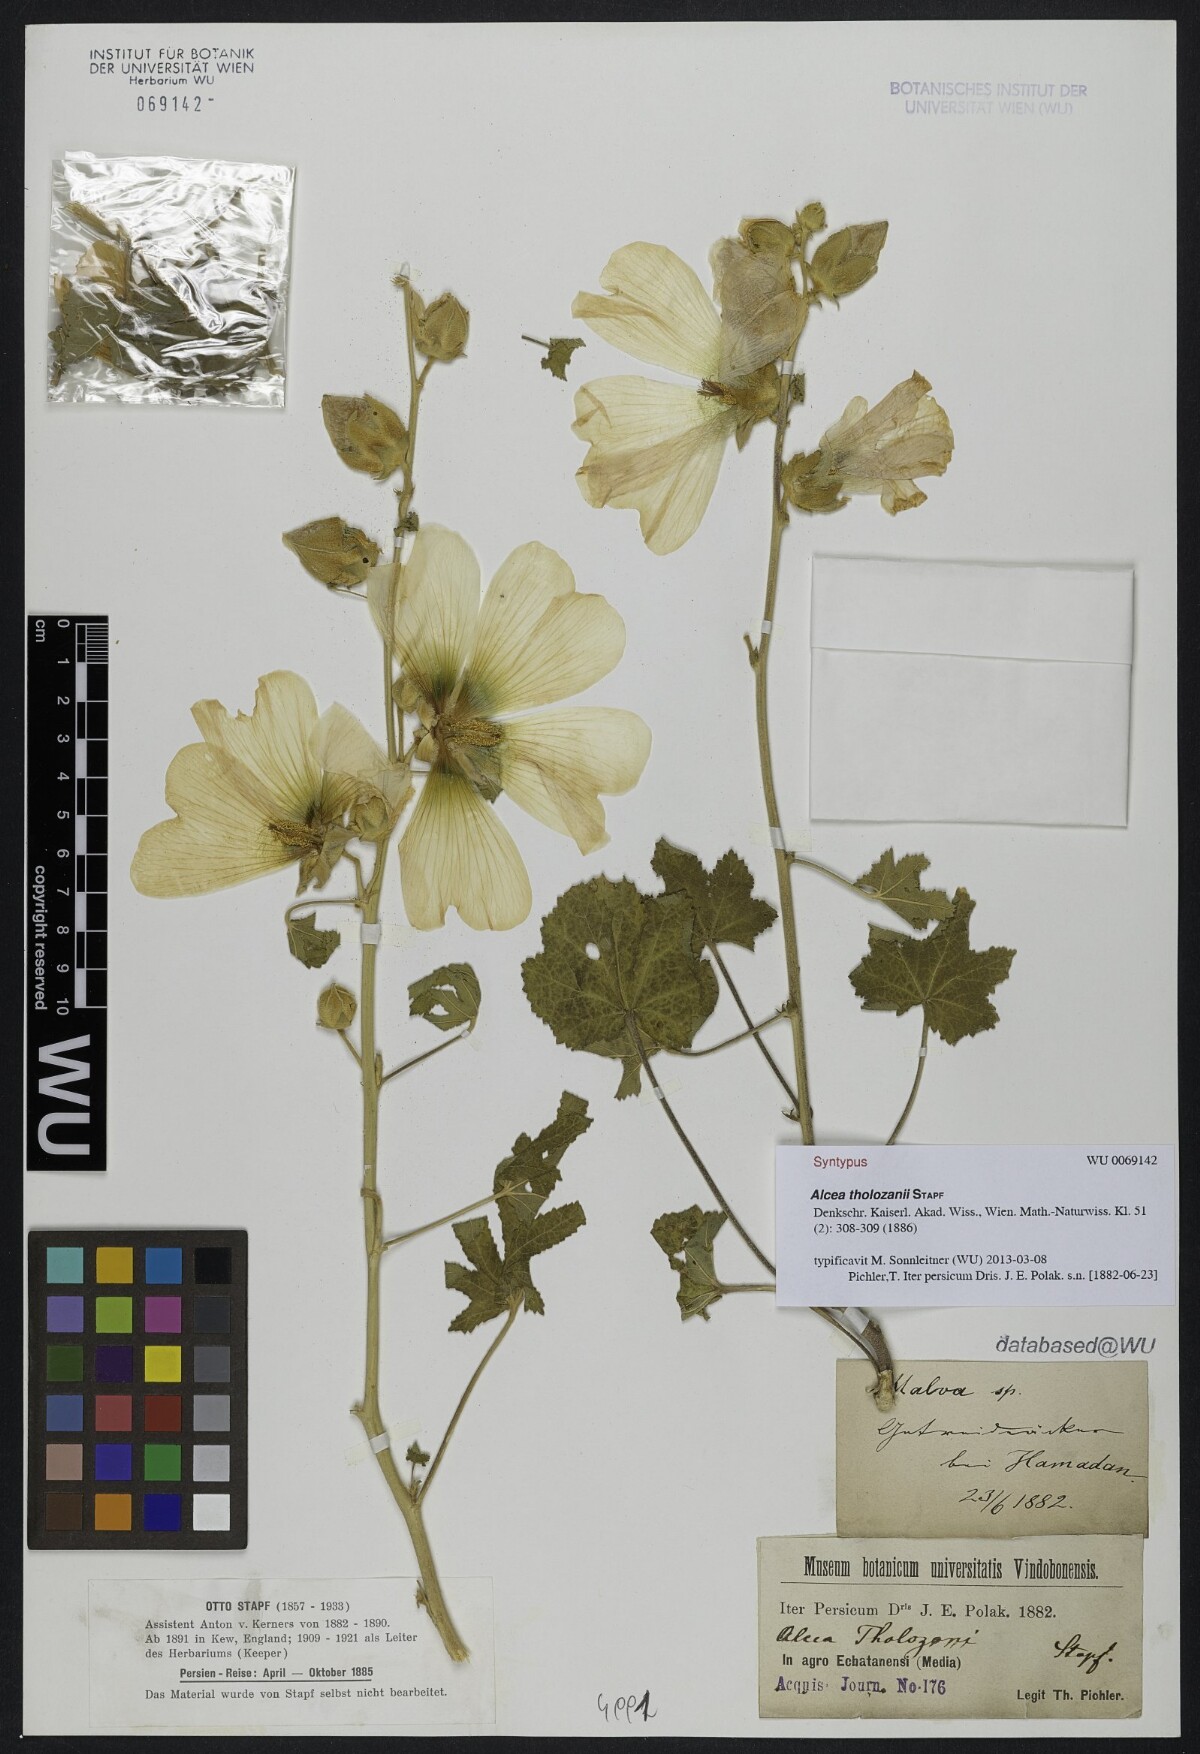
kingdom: Plantae
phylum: Tracheophyta
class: Magnoliopsida
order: Malvales
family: Malvaceae
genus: Alcea
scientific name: Alcea tholozani
